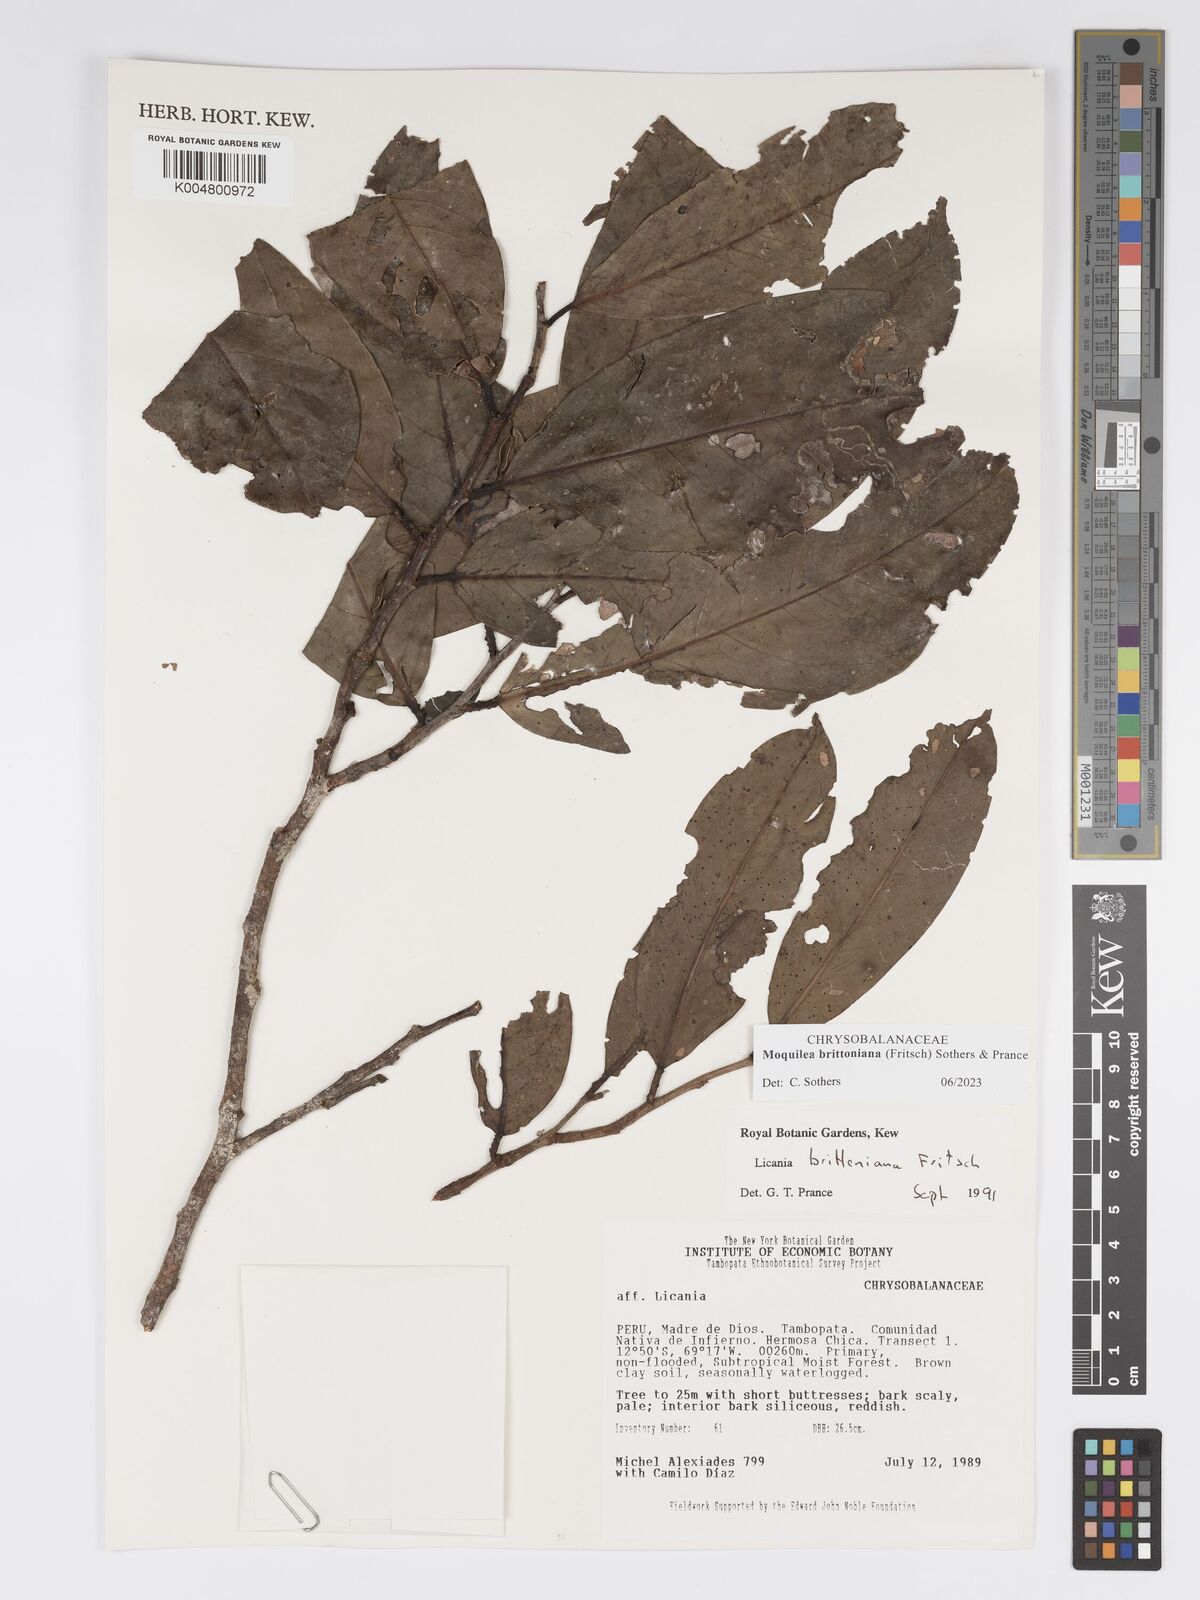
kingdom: Plantae
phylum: Tracheophyta
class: Magnoliopsida
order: Malpighiales
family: Chrysobalanaceae
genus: Moquilea
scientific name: Moquilea brittoniana
